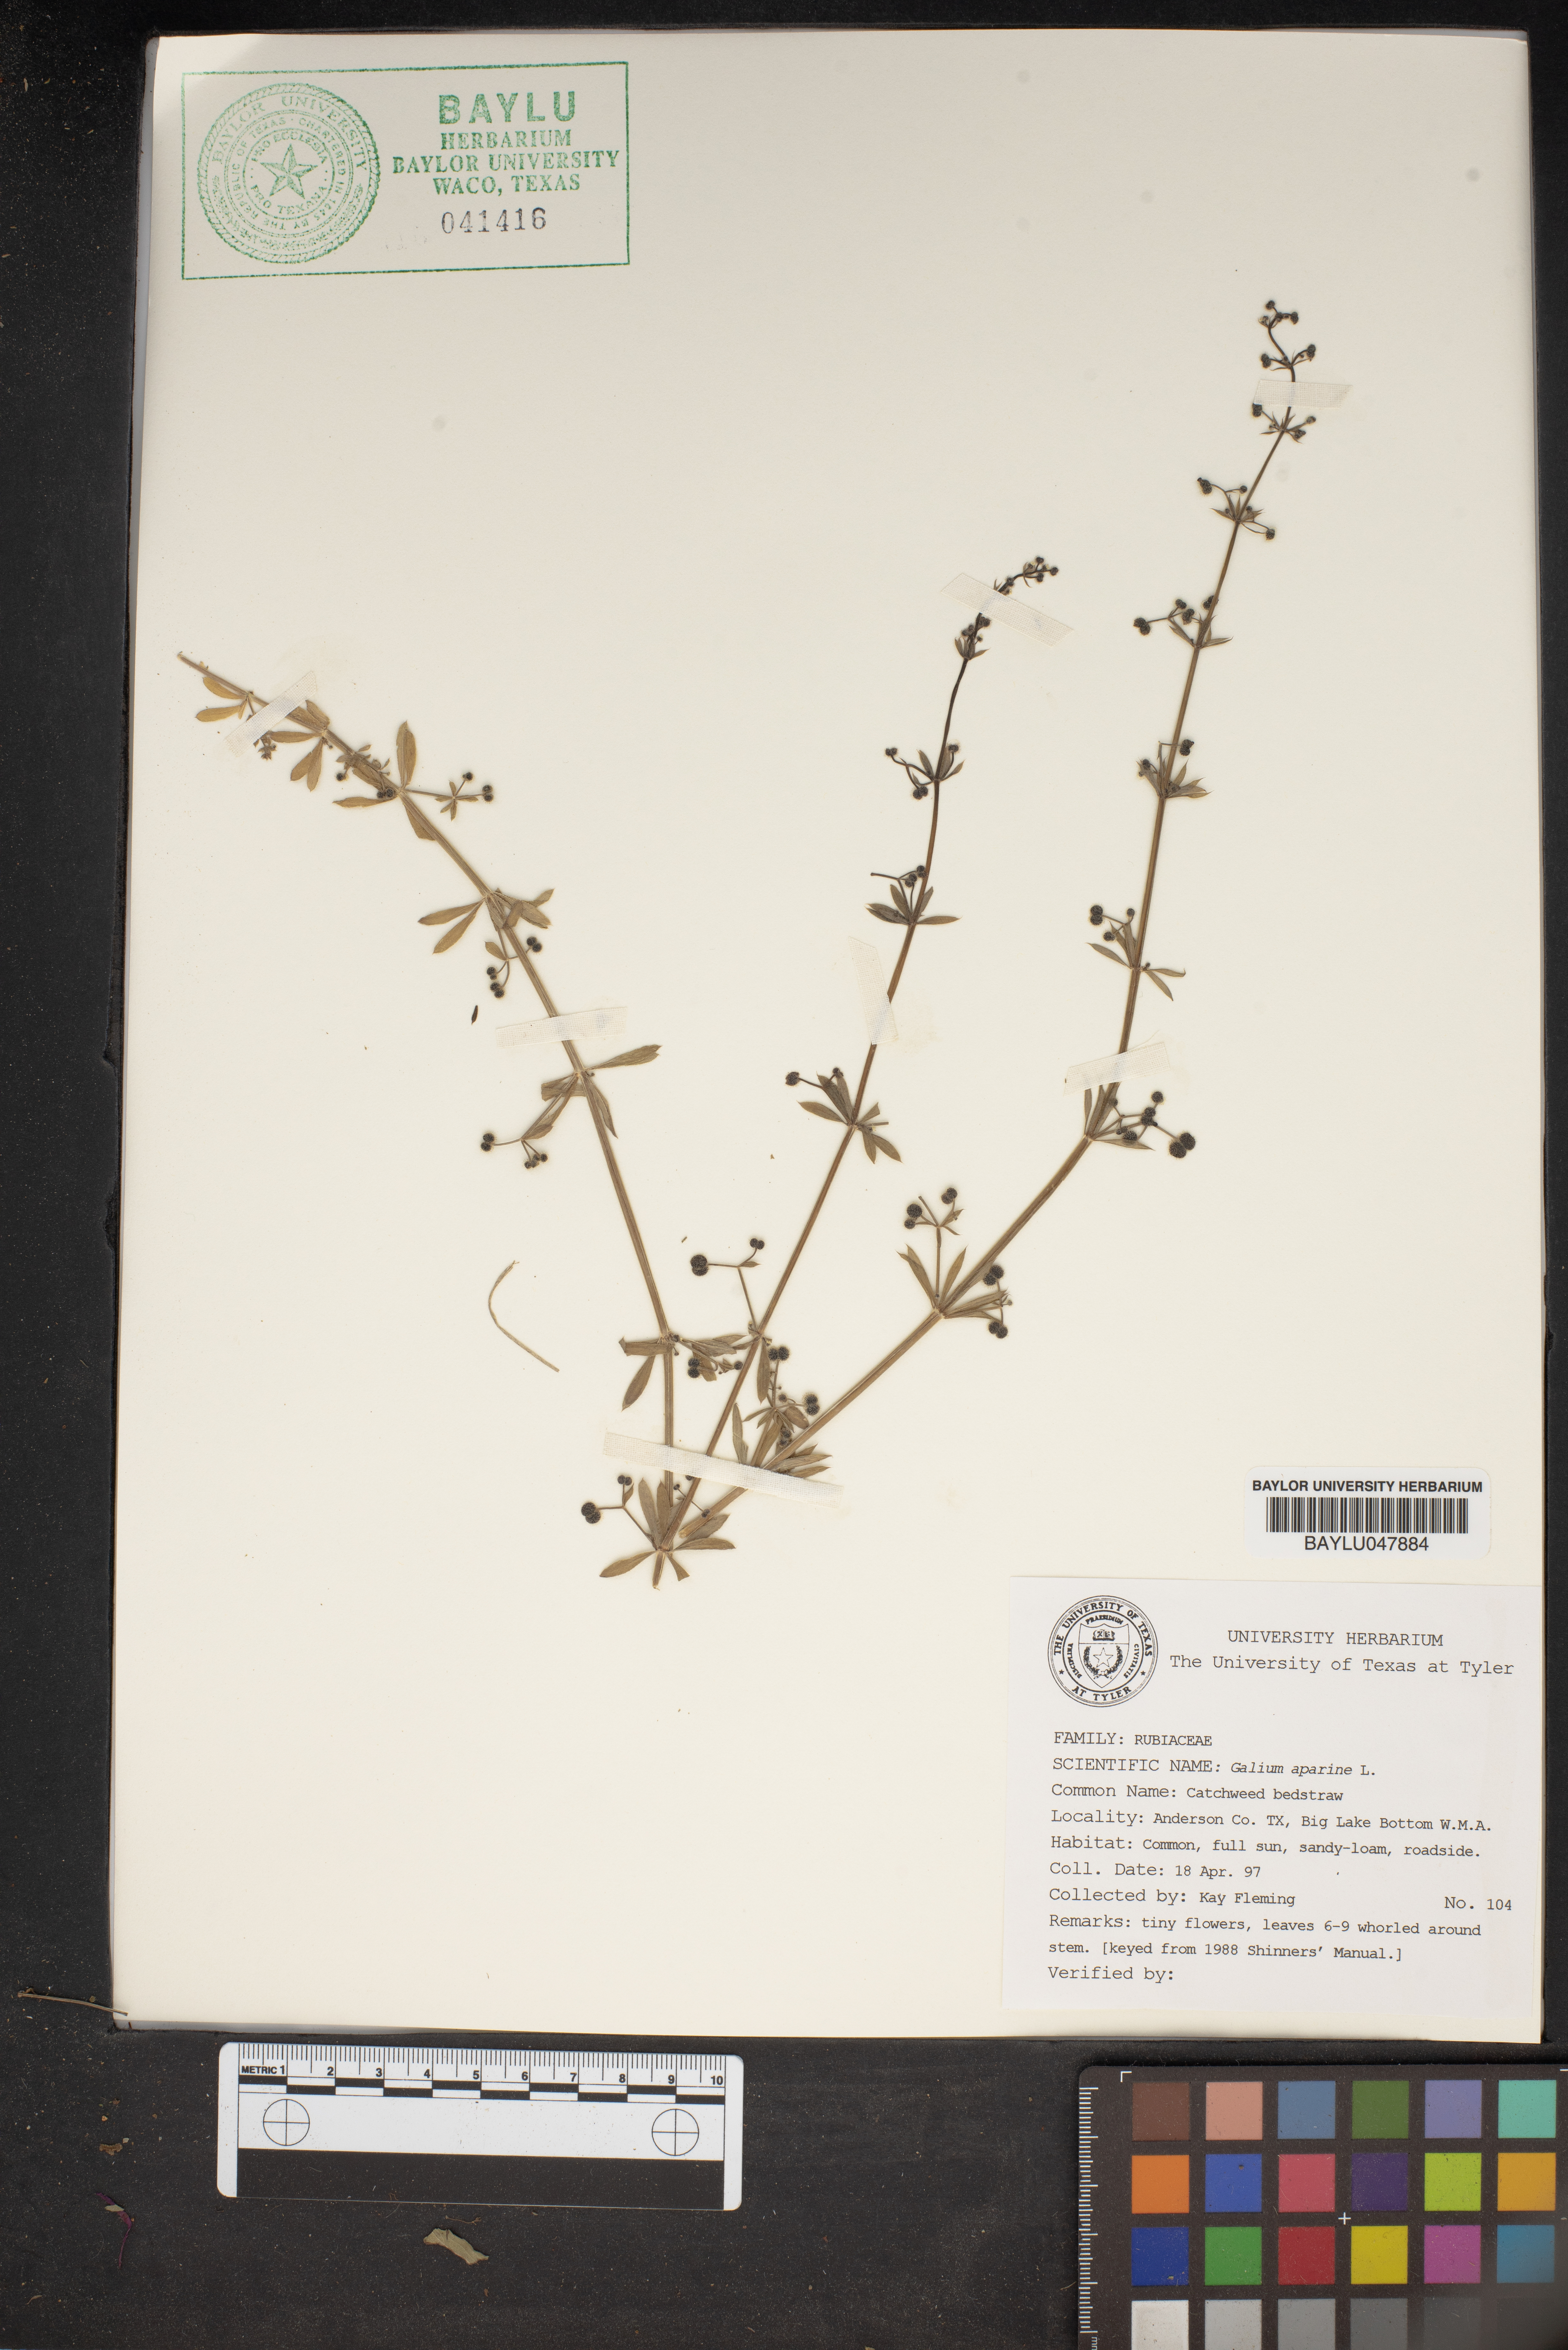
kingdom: Plantae
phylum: Tracheophyta
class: Magnoliopsida
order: Gentianales
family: Rubiaceae
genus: Galium
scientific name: Galium aparine
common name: Cleavers
